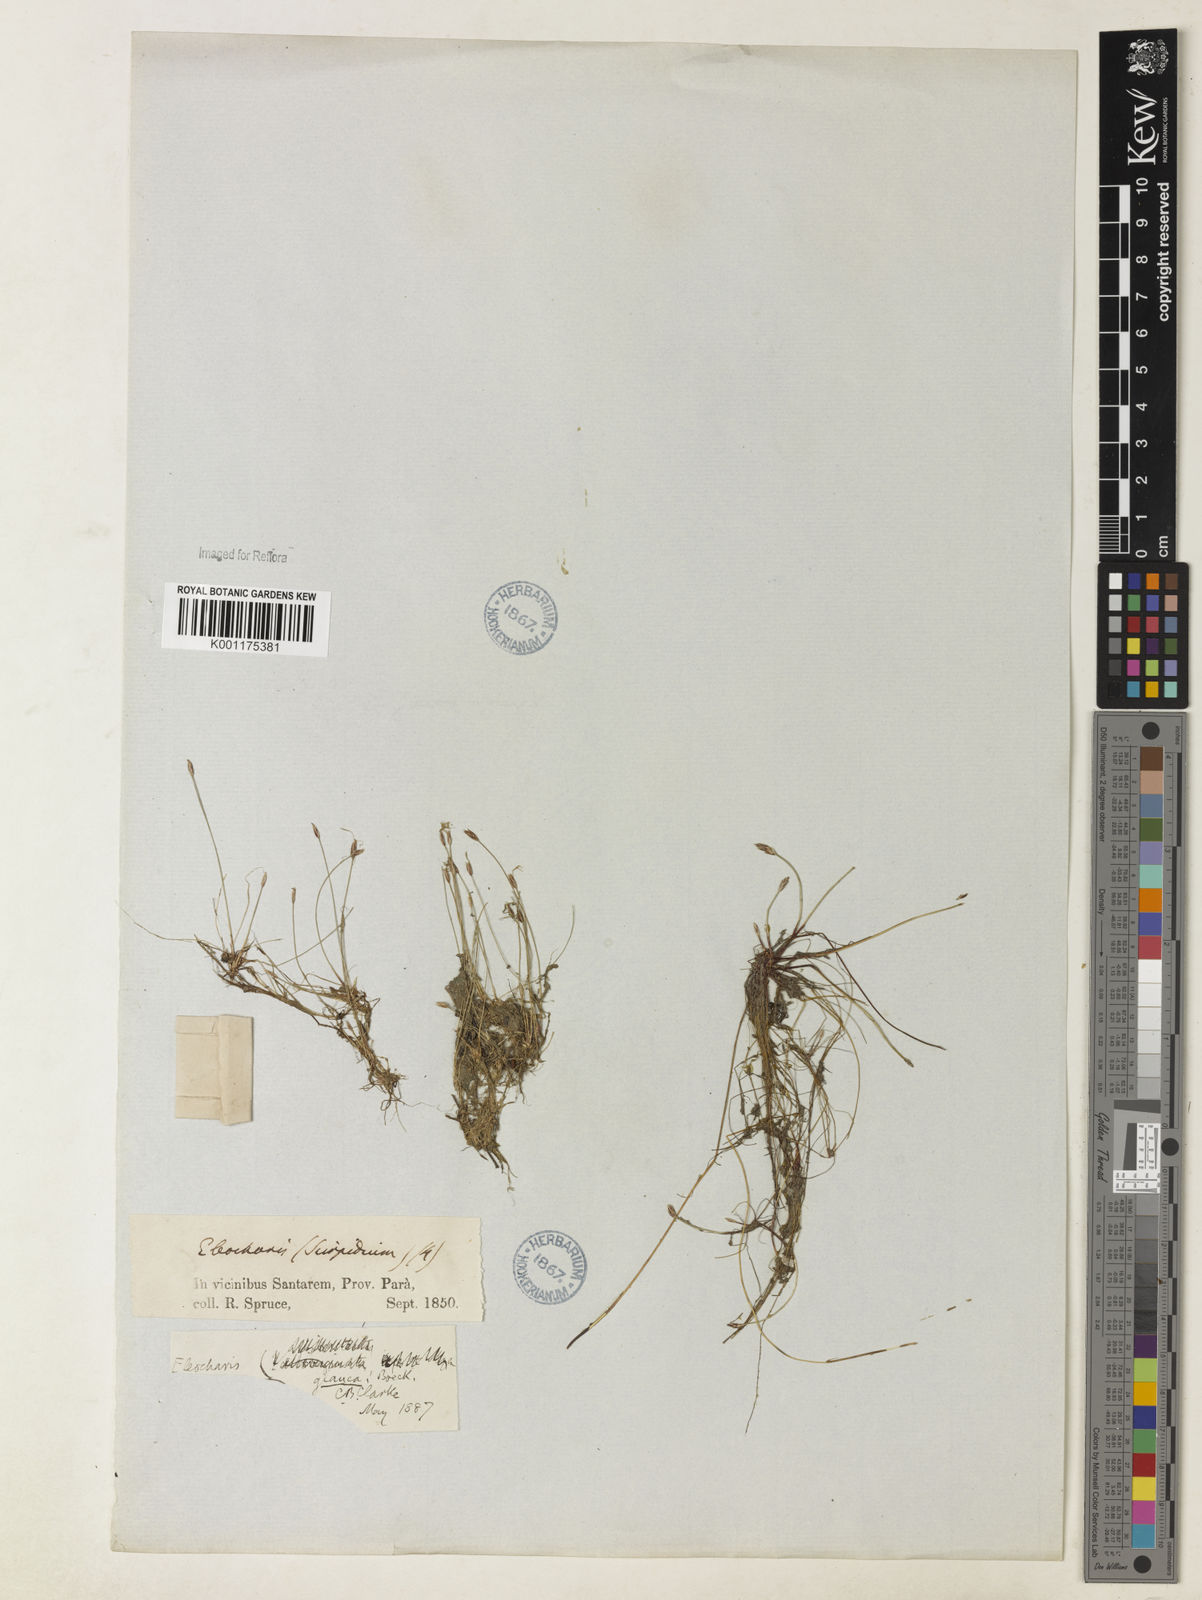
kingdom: Plantae
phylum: Tracheophyta
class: Liliopsida
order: Poales
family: Cyperaceae
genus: Eleocharis
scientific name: Eleocharis glauca
